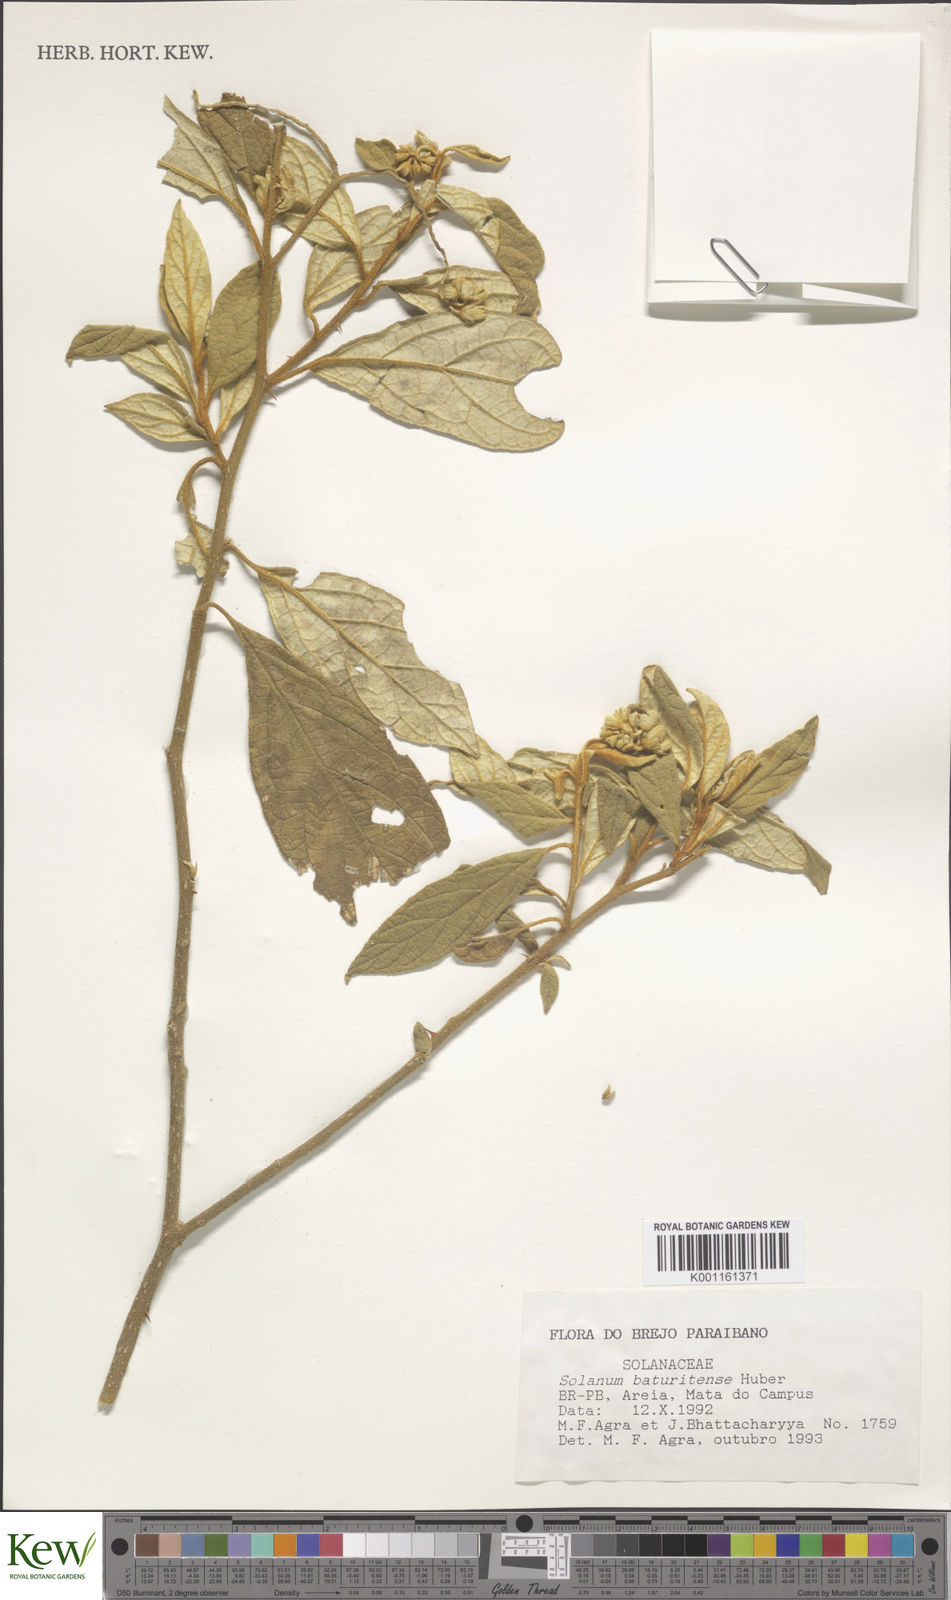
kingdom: Plantae
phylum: Tracheophyta
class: Magnoliopsida
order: Solanales
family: Solanaceae
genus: Solanum
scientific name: Solanum rhytidoandrum
